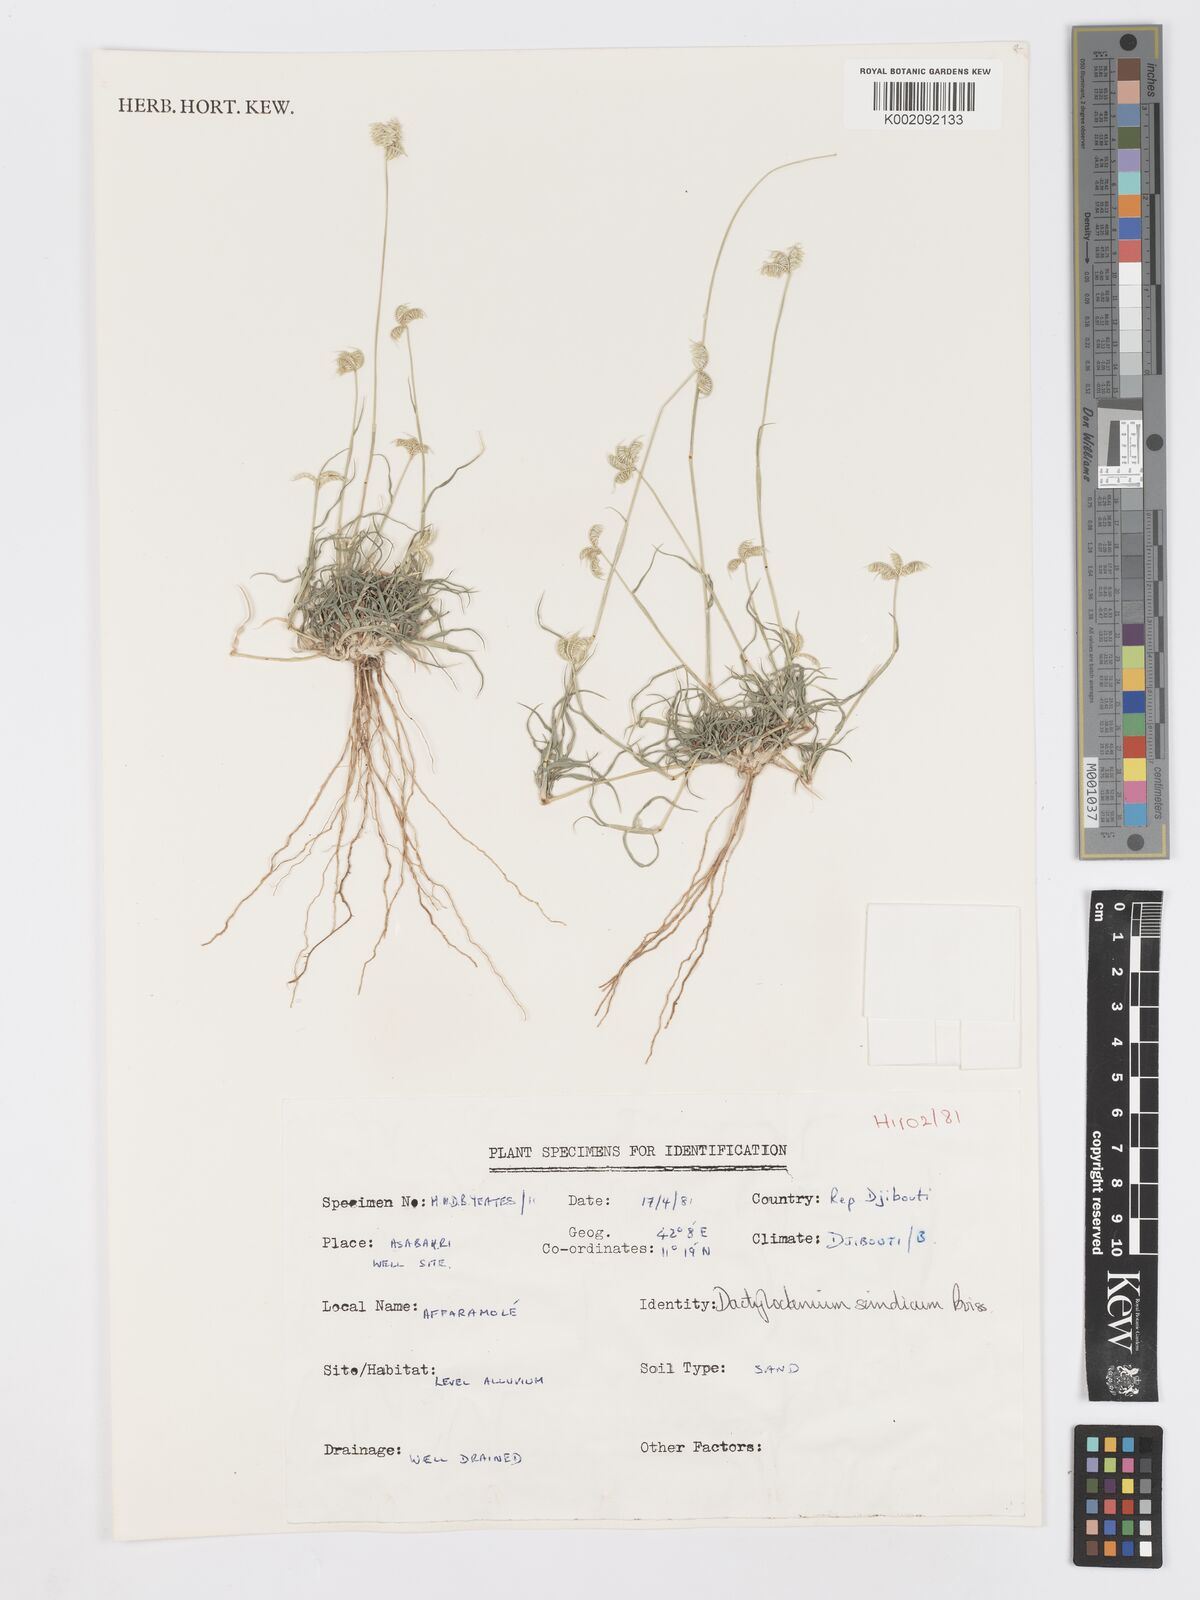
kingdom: Plantae
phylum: Tracheophyta
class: Liliopsida
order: Poales
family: Poaceae
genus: Dactyloctenium
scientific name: Dactyloctenium scindicum
